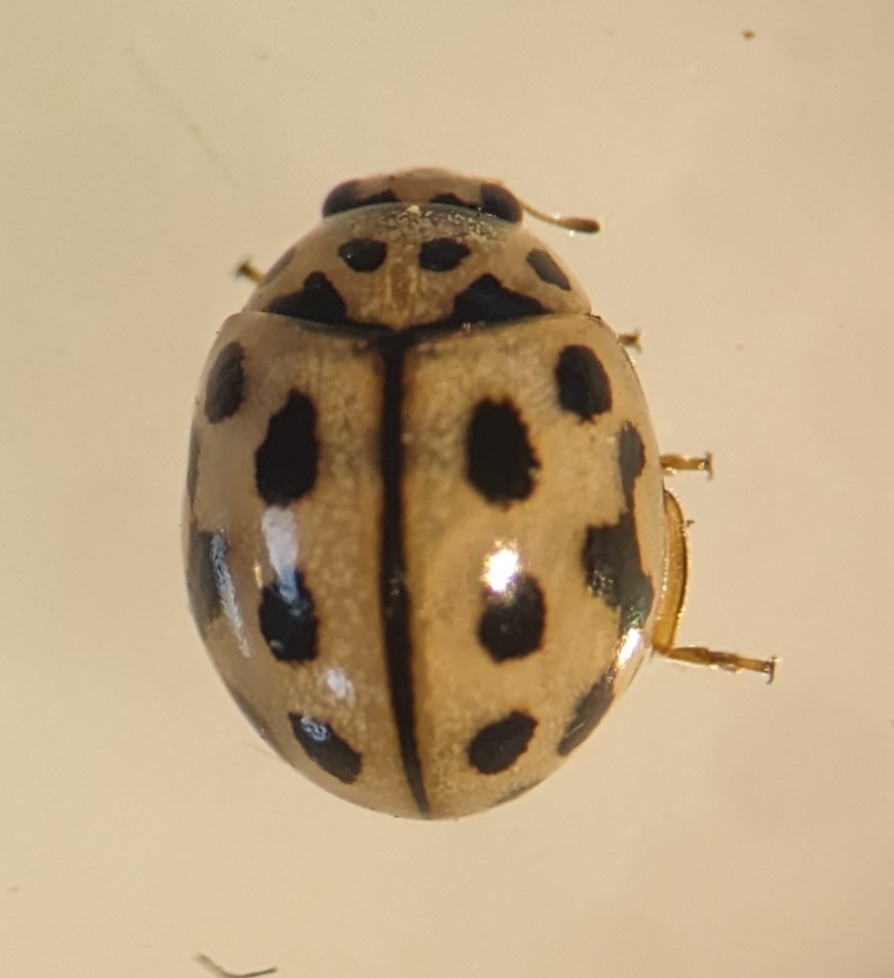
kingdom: Animalia
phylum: Arthropoda
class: Insecta
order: Coleoptera
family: Coccinellidae
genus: Tytthaspis
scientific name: Tytthaspis sedecimpunctata
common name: Sekstenprikket mariehøne
